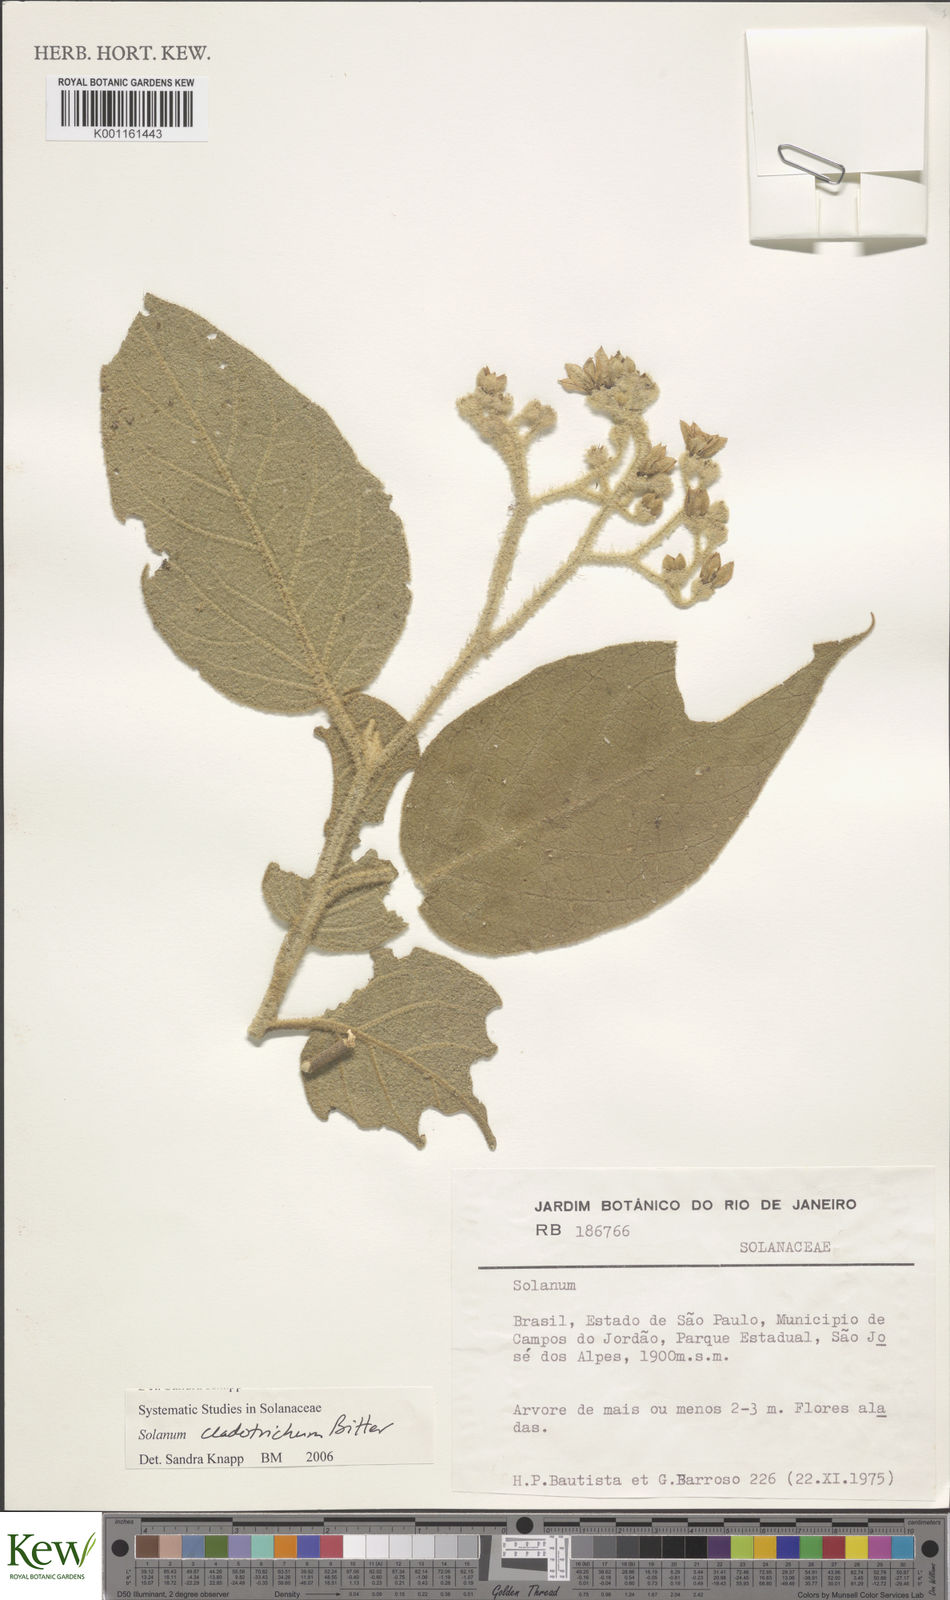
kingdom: Plantae
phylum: Tracheophyta
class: Magnoliopsida
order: Solanales
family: Solanaceae
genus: Solanum
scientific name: Solanum jussiaei
